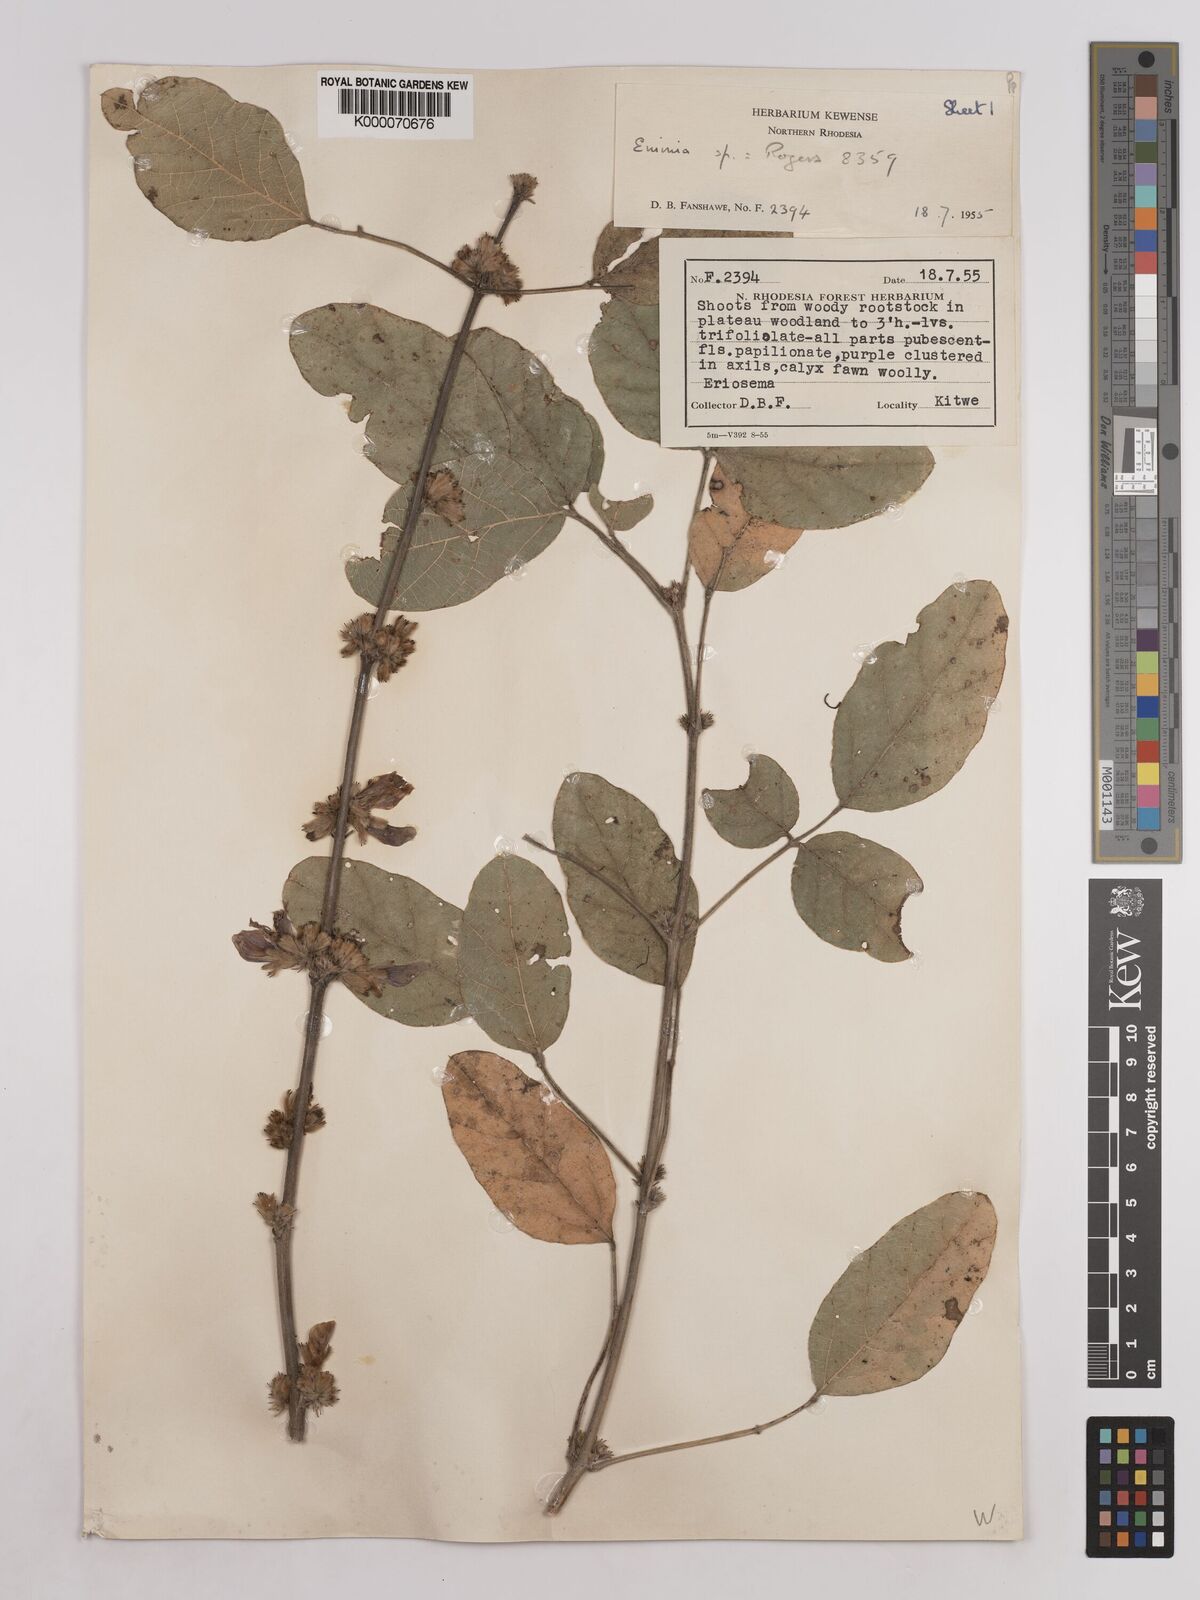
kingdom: Plantae
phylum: Tracheophyta
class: Magnoliopsida
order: Fabales
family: Fabaceae
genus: Eminia
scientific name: Eminia harmsiana
